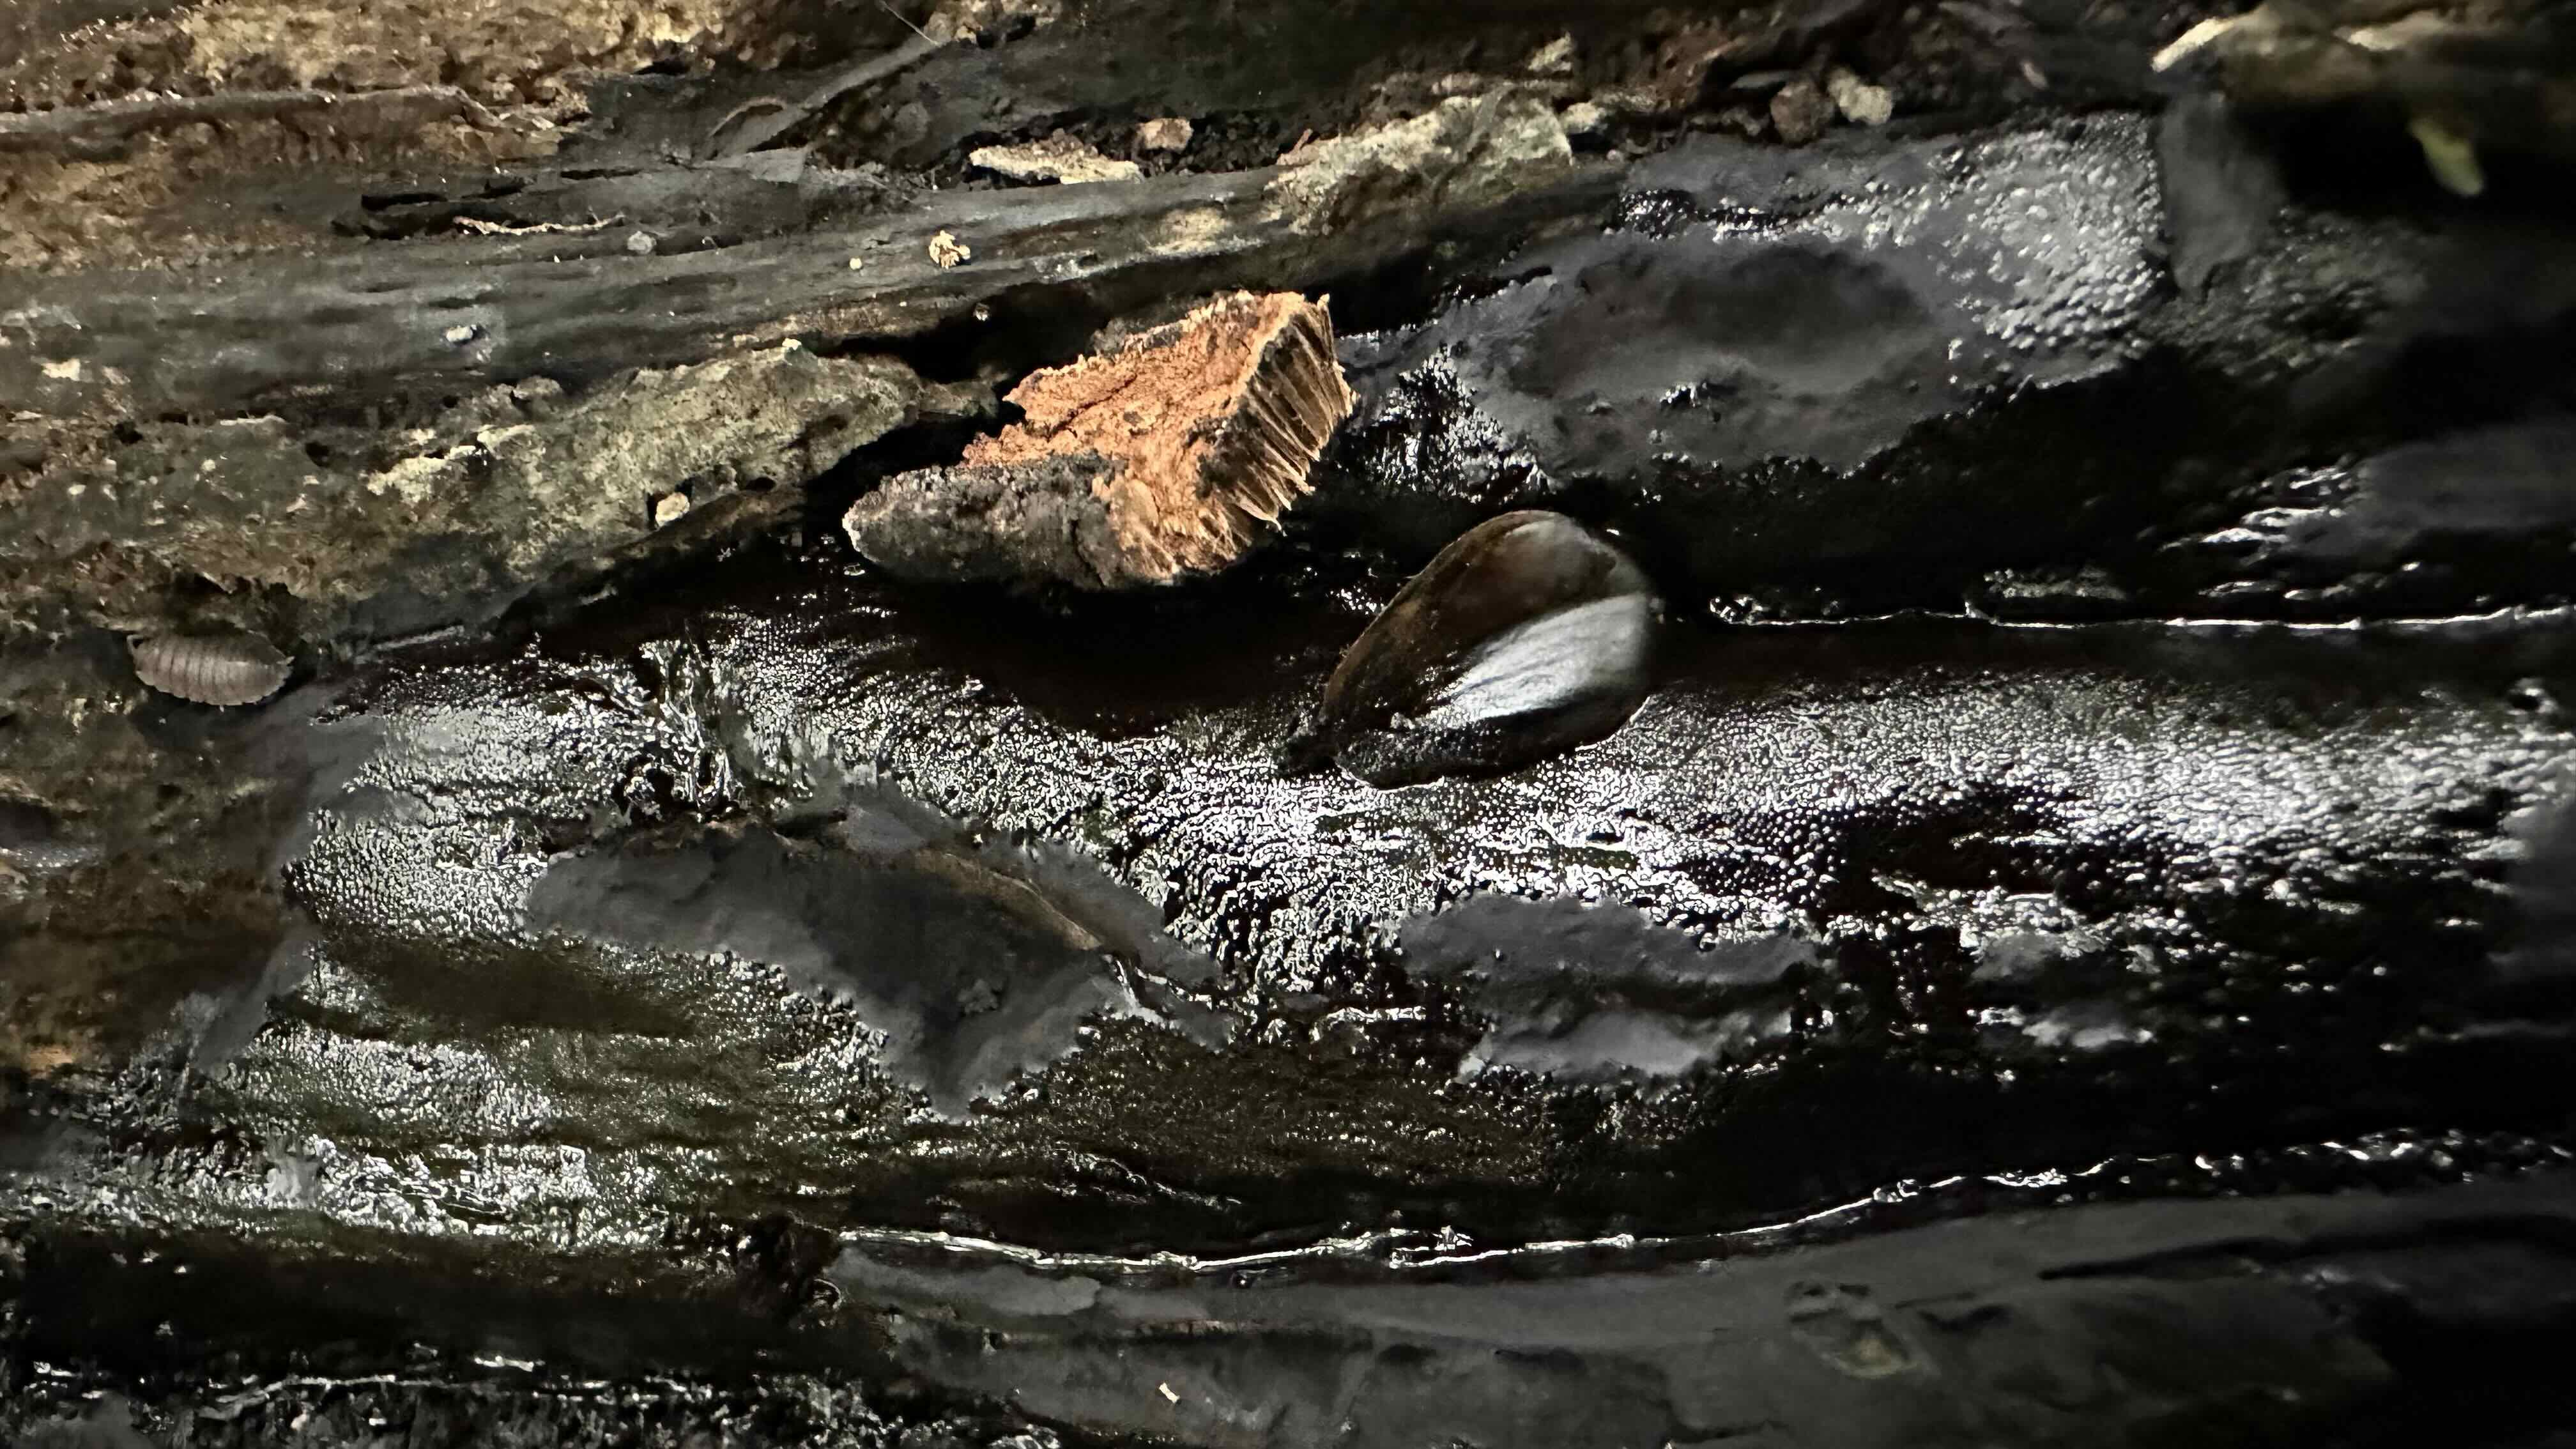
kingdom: Fungi
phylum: Ascomycota
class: Sordariomycetes
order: Boliniales
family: Boliniaceae
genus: Camarops
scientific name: Camarops polysperma
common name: elle-kulsnegl
